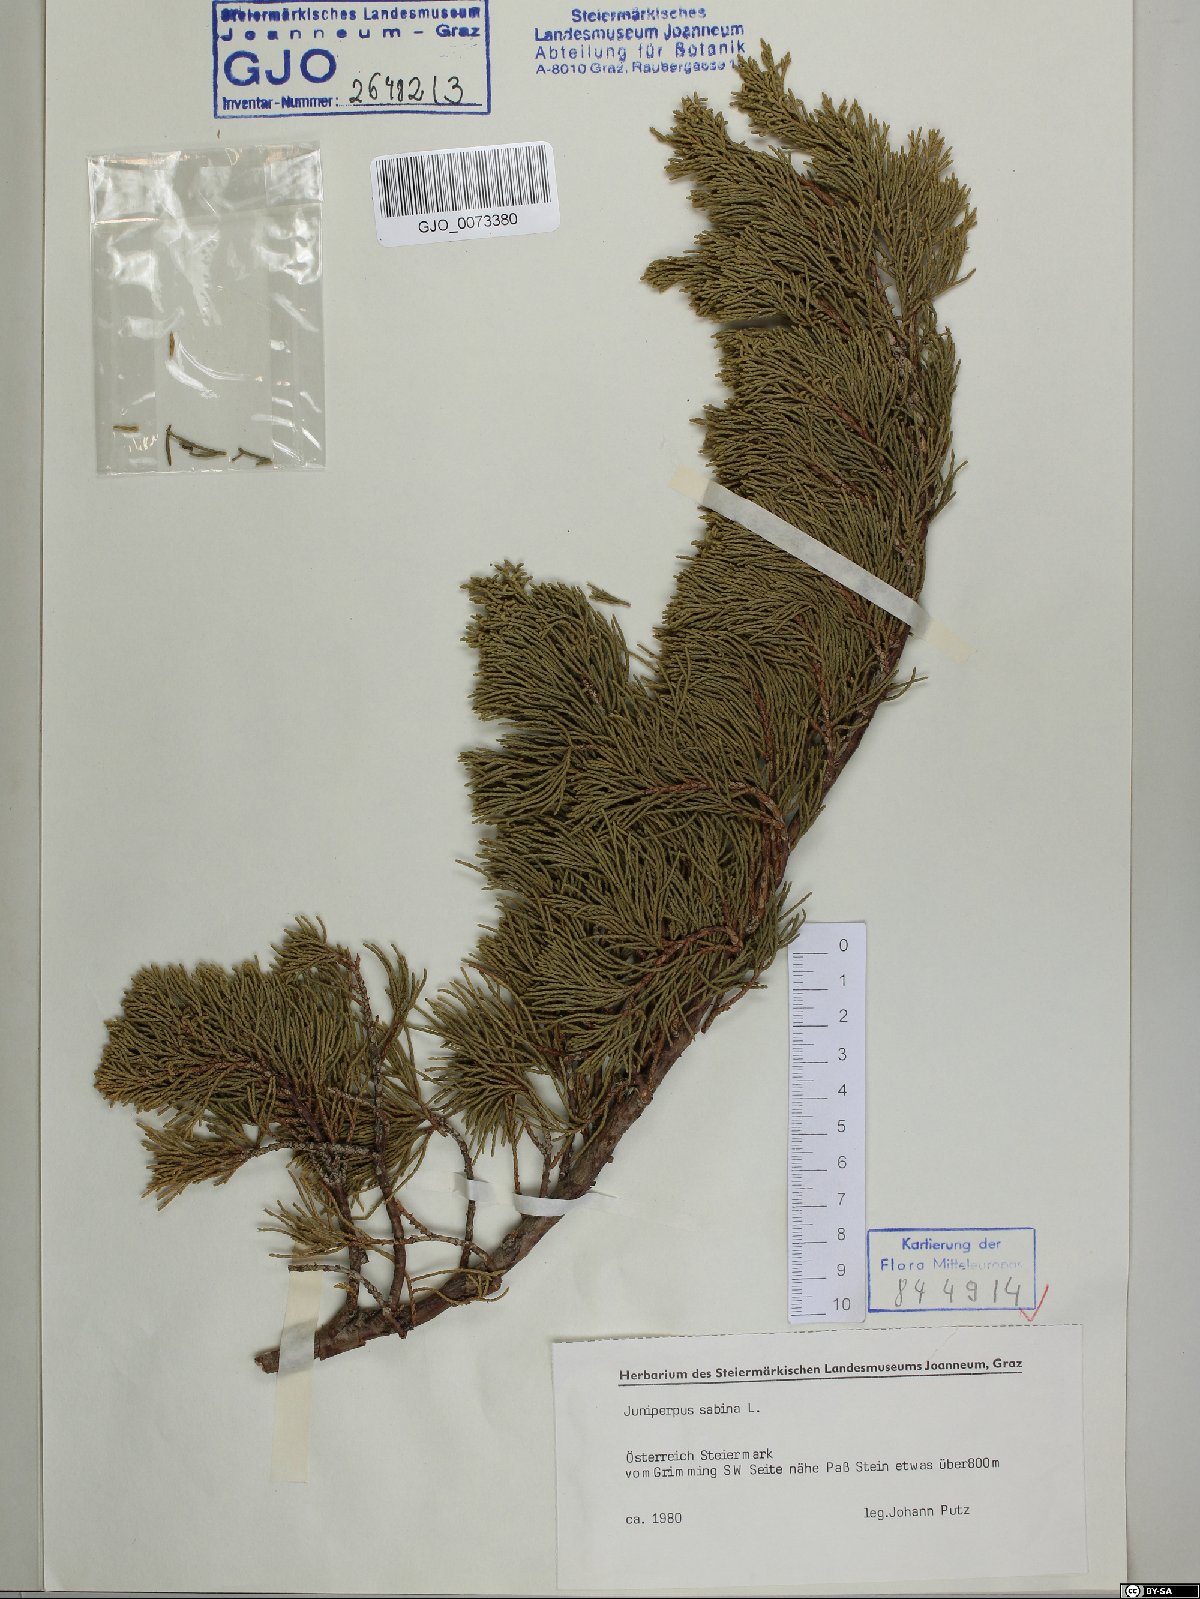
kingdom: Plantae
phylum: Tracheophyta
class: Pinopsida
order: Pinales
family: Cupressaceae
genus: Juniperus
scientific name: Juniperus sabina
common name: Savin
